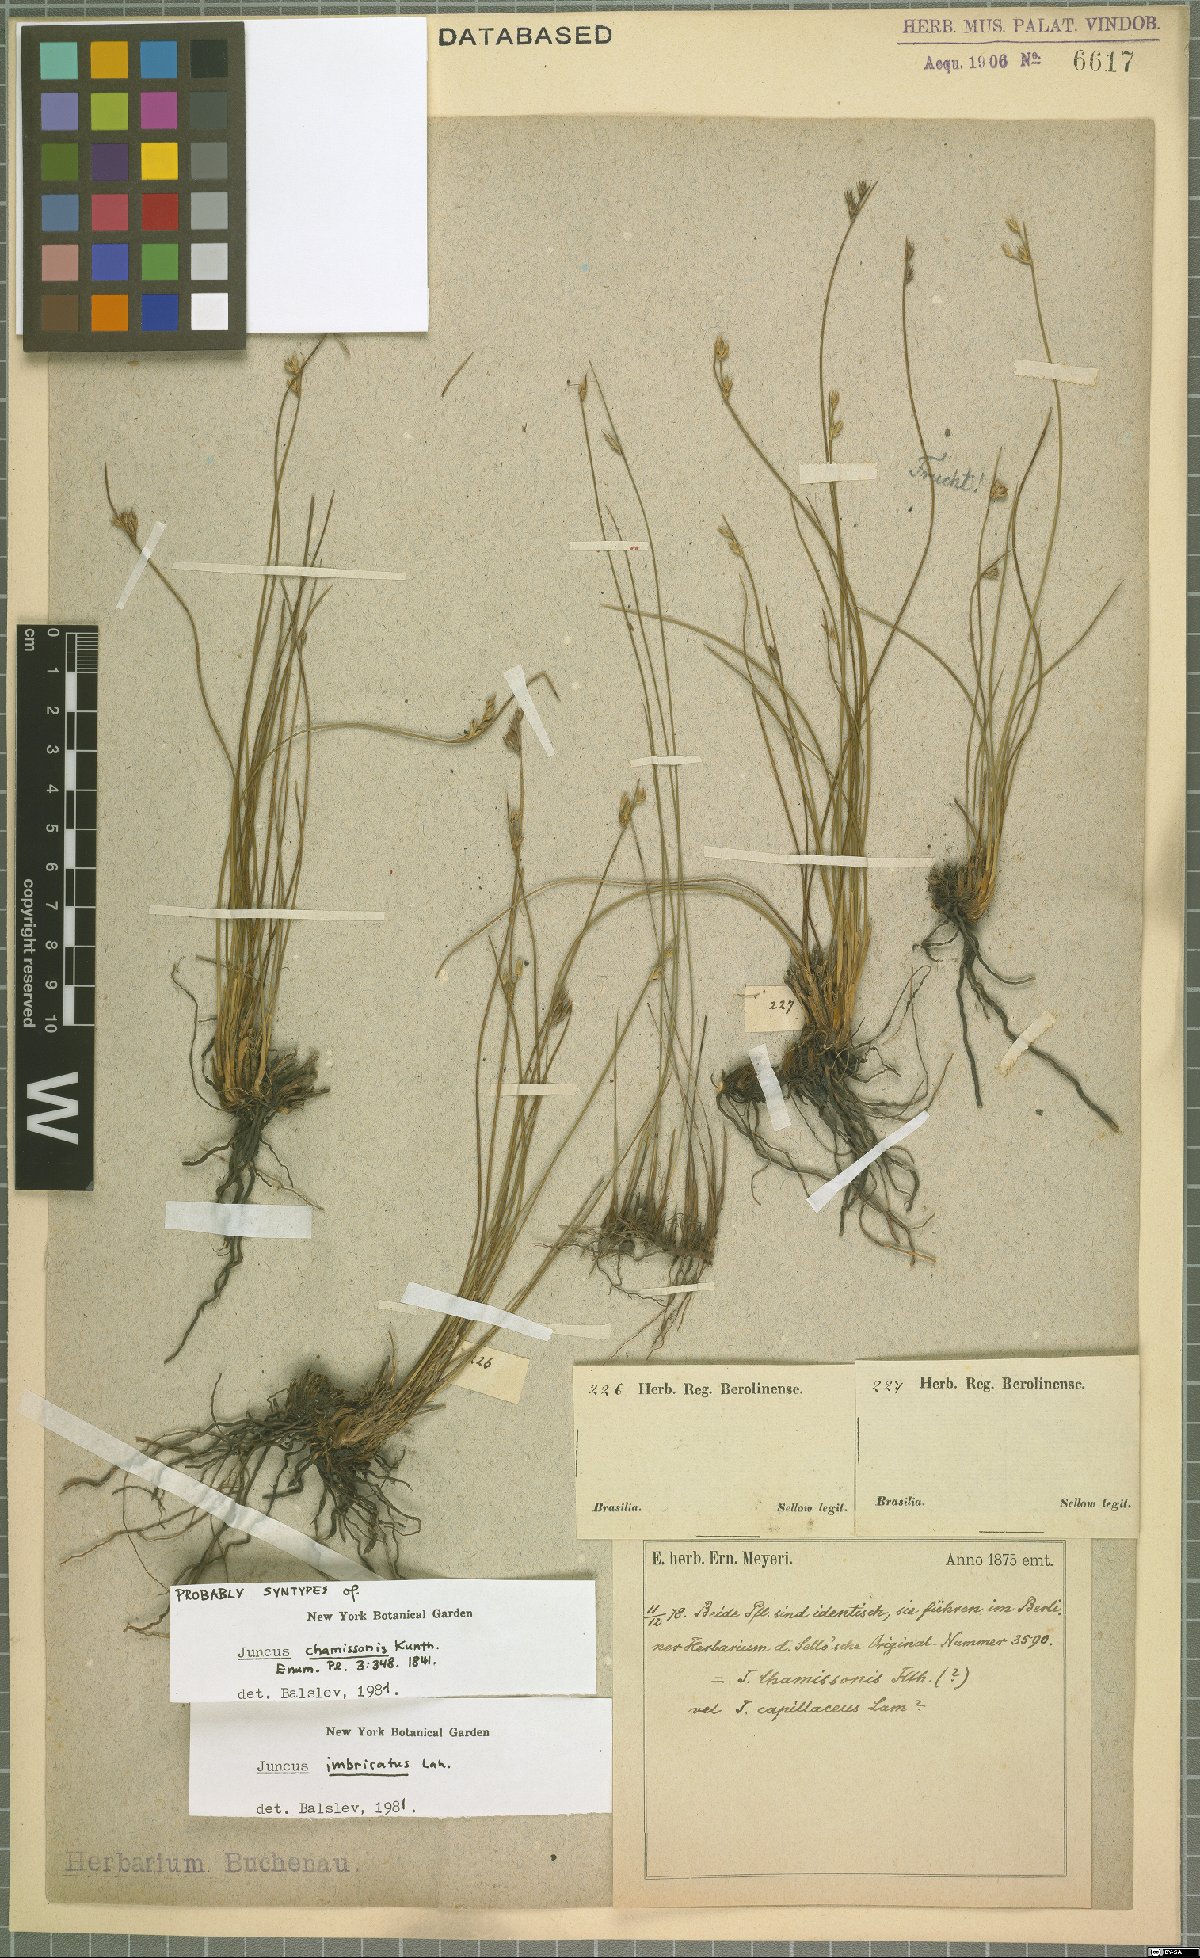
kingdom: Plantae
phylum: Tracheophyta
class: Liliopsida
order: Poales
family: Juncaceae
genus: Juncus
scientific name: Juncus imbricatus
